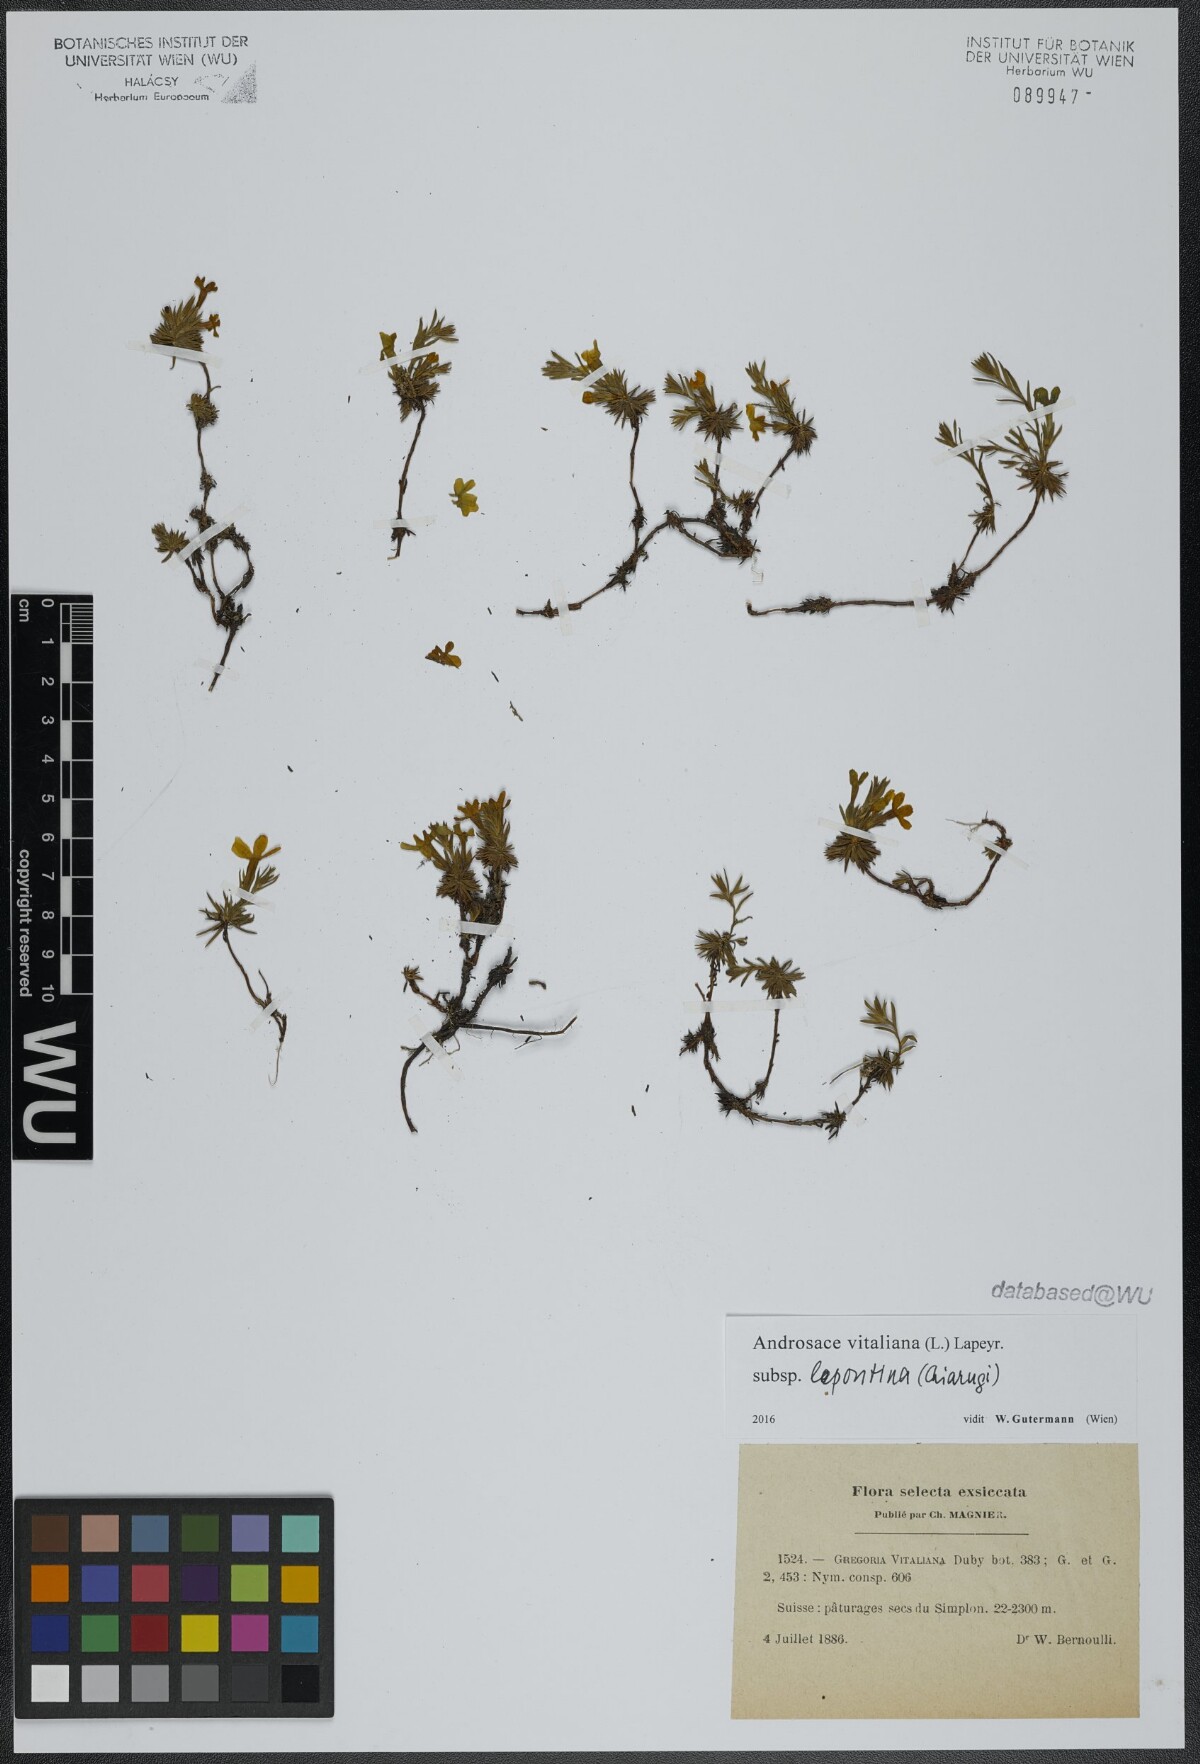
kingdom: Plantae
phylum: Tracheophyta
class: Magnoliopsida
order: Ericales
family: Primulaceae
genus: Androsace
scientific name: Androsace vitaliana
